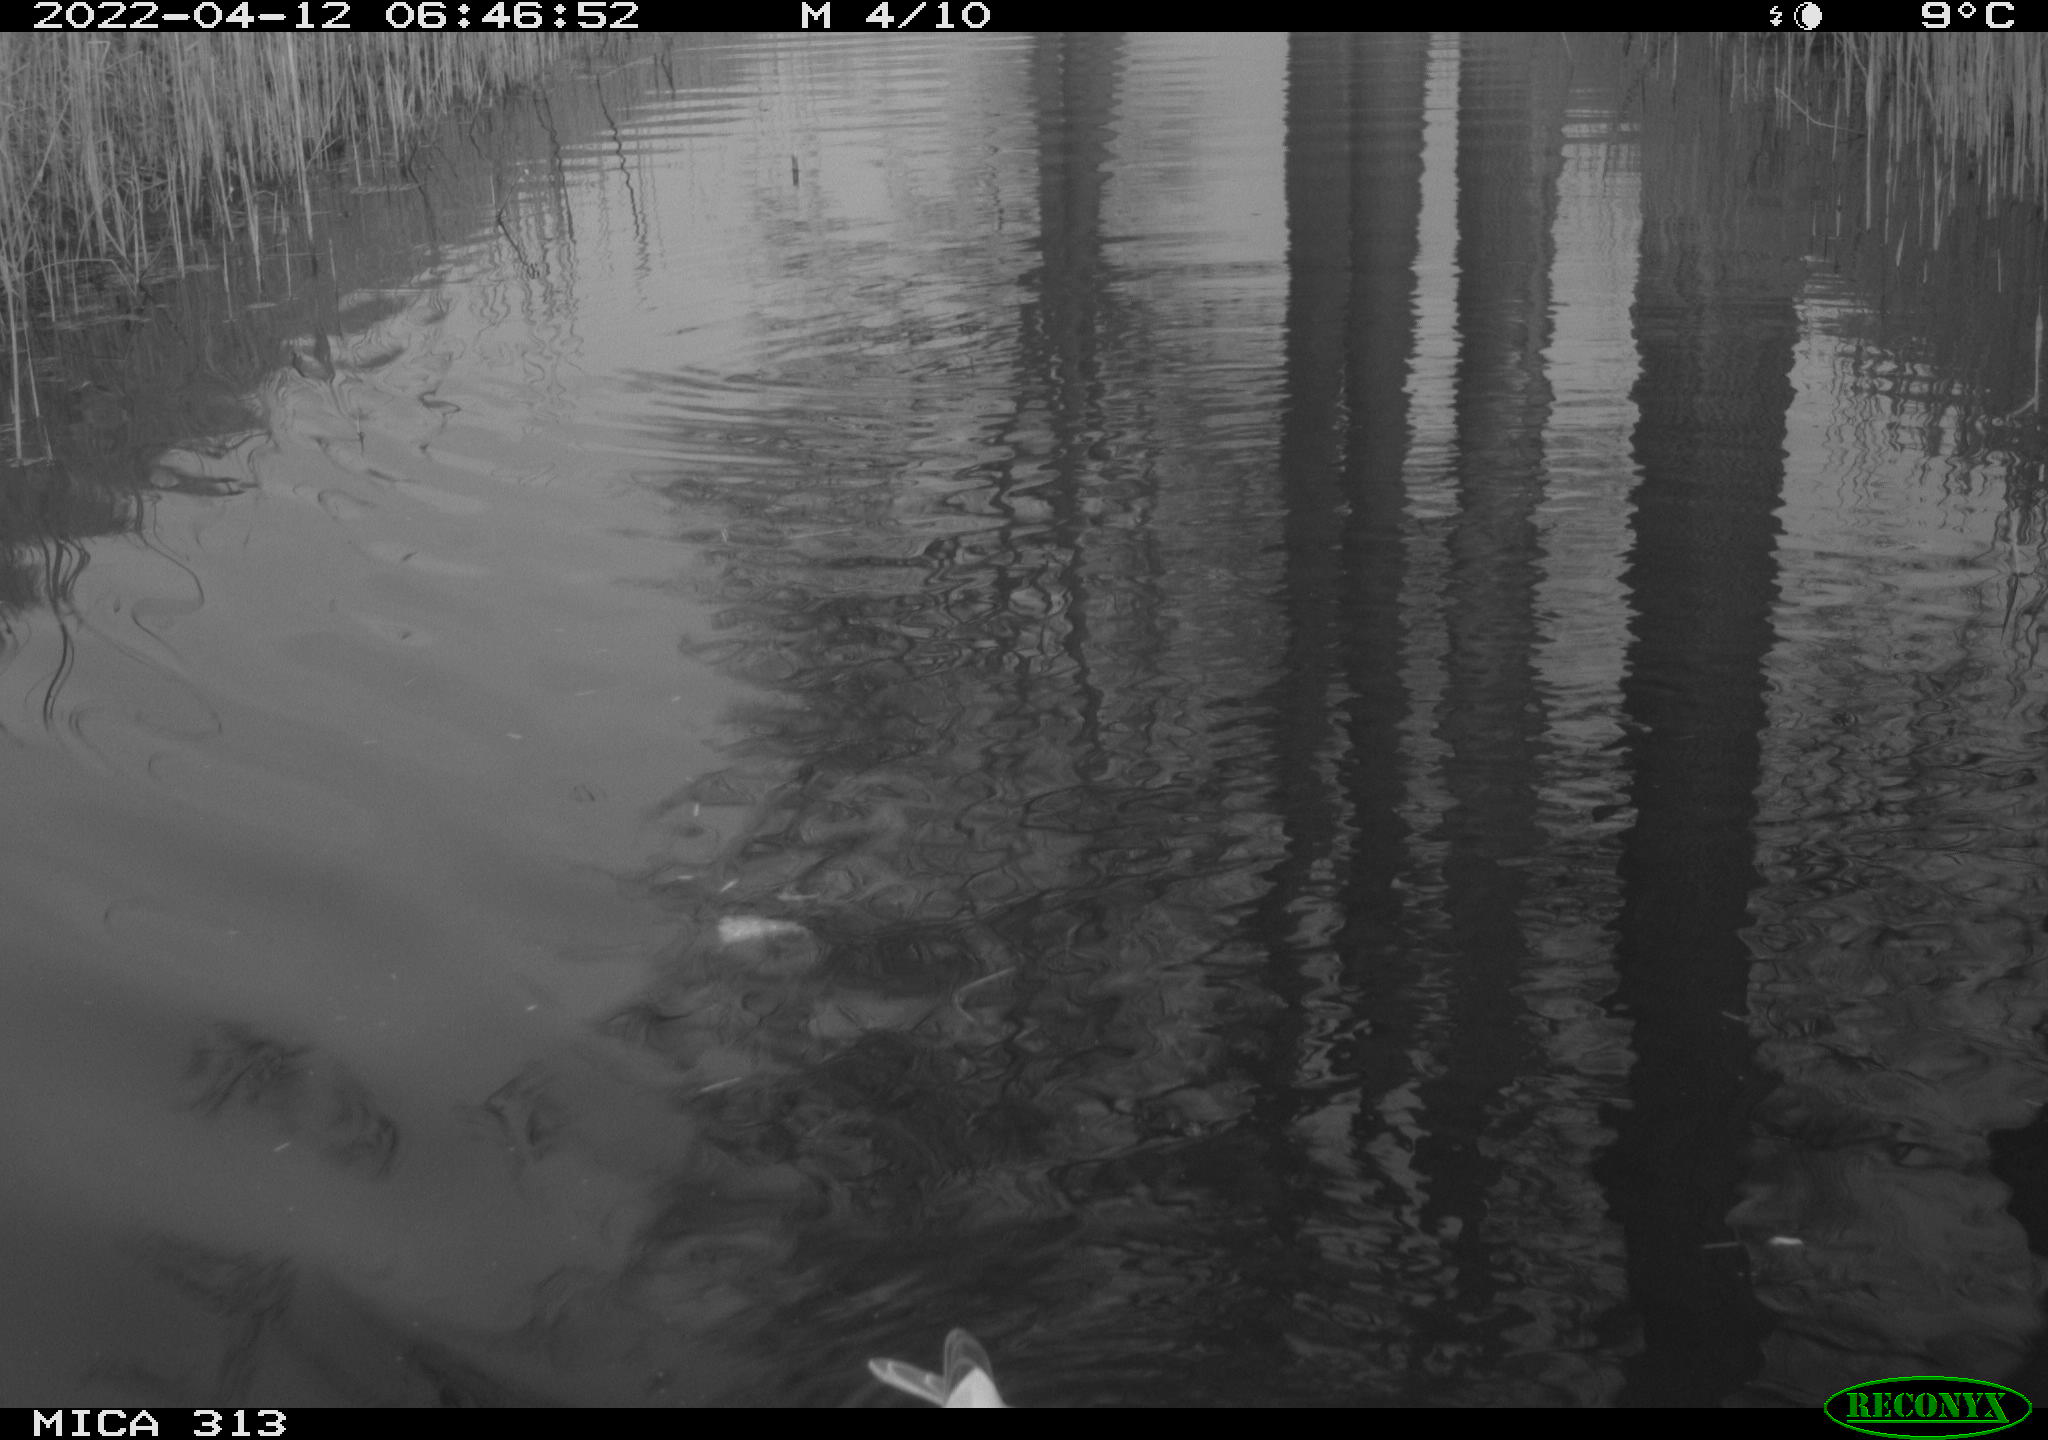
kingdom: Animalia
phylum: Chordata
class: Aves
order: Anseriformes
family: Anatidae
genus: Anas
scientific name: Anas platyrhynchos
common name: Mallard
